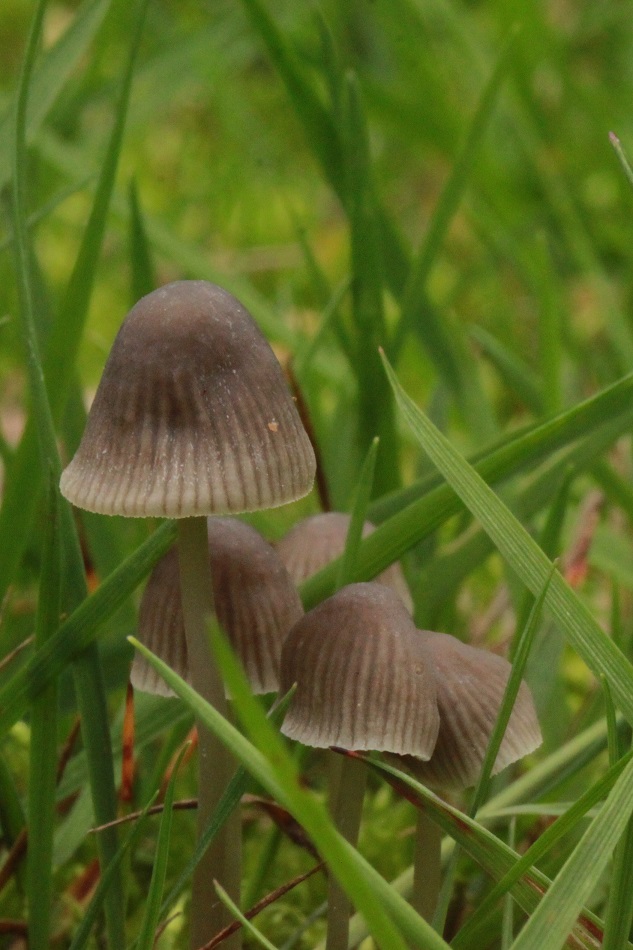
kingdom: Fungi
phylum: Basidiomycota
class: Agaricomycetes
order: Agaricales
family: Mycenaceae
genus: Mycena
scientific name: Mycena aetites
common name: plæne-huesvamp
